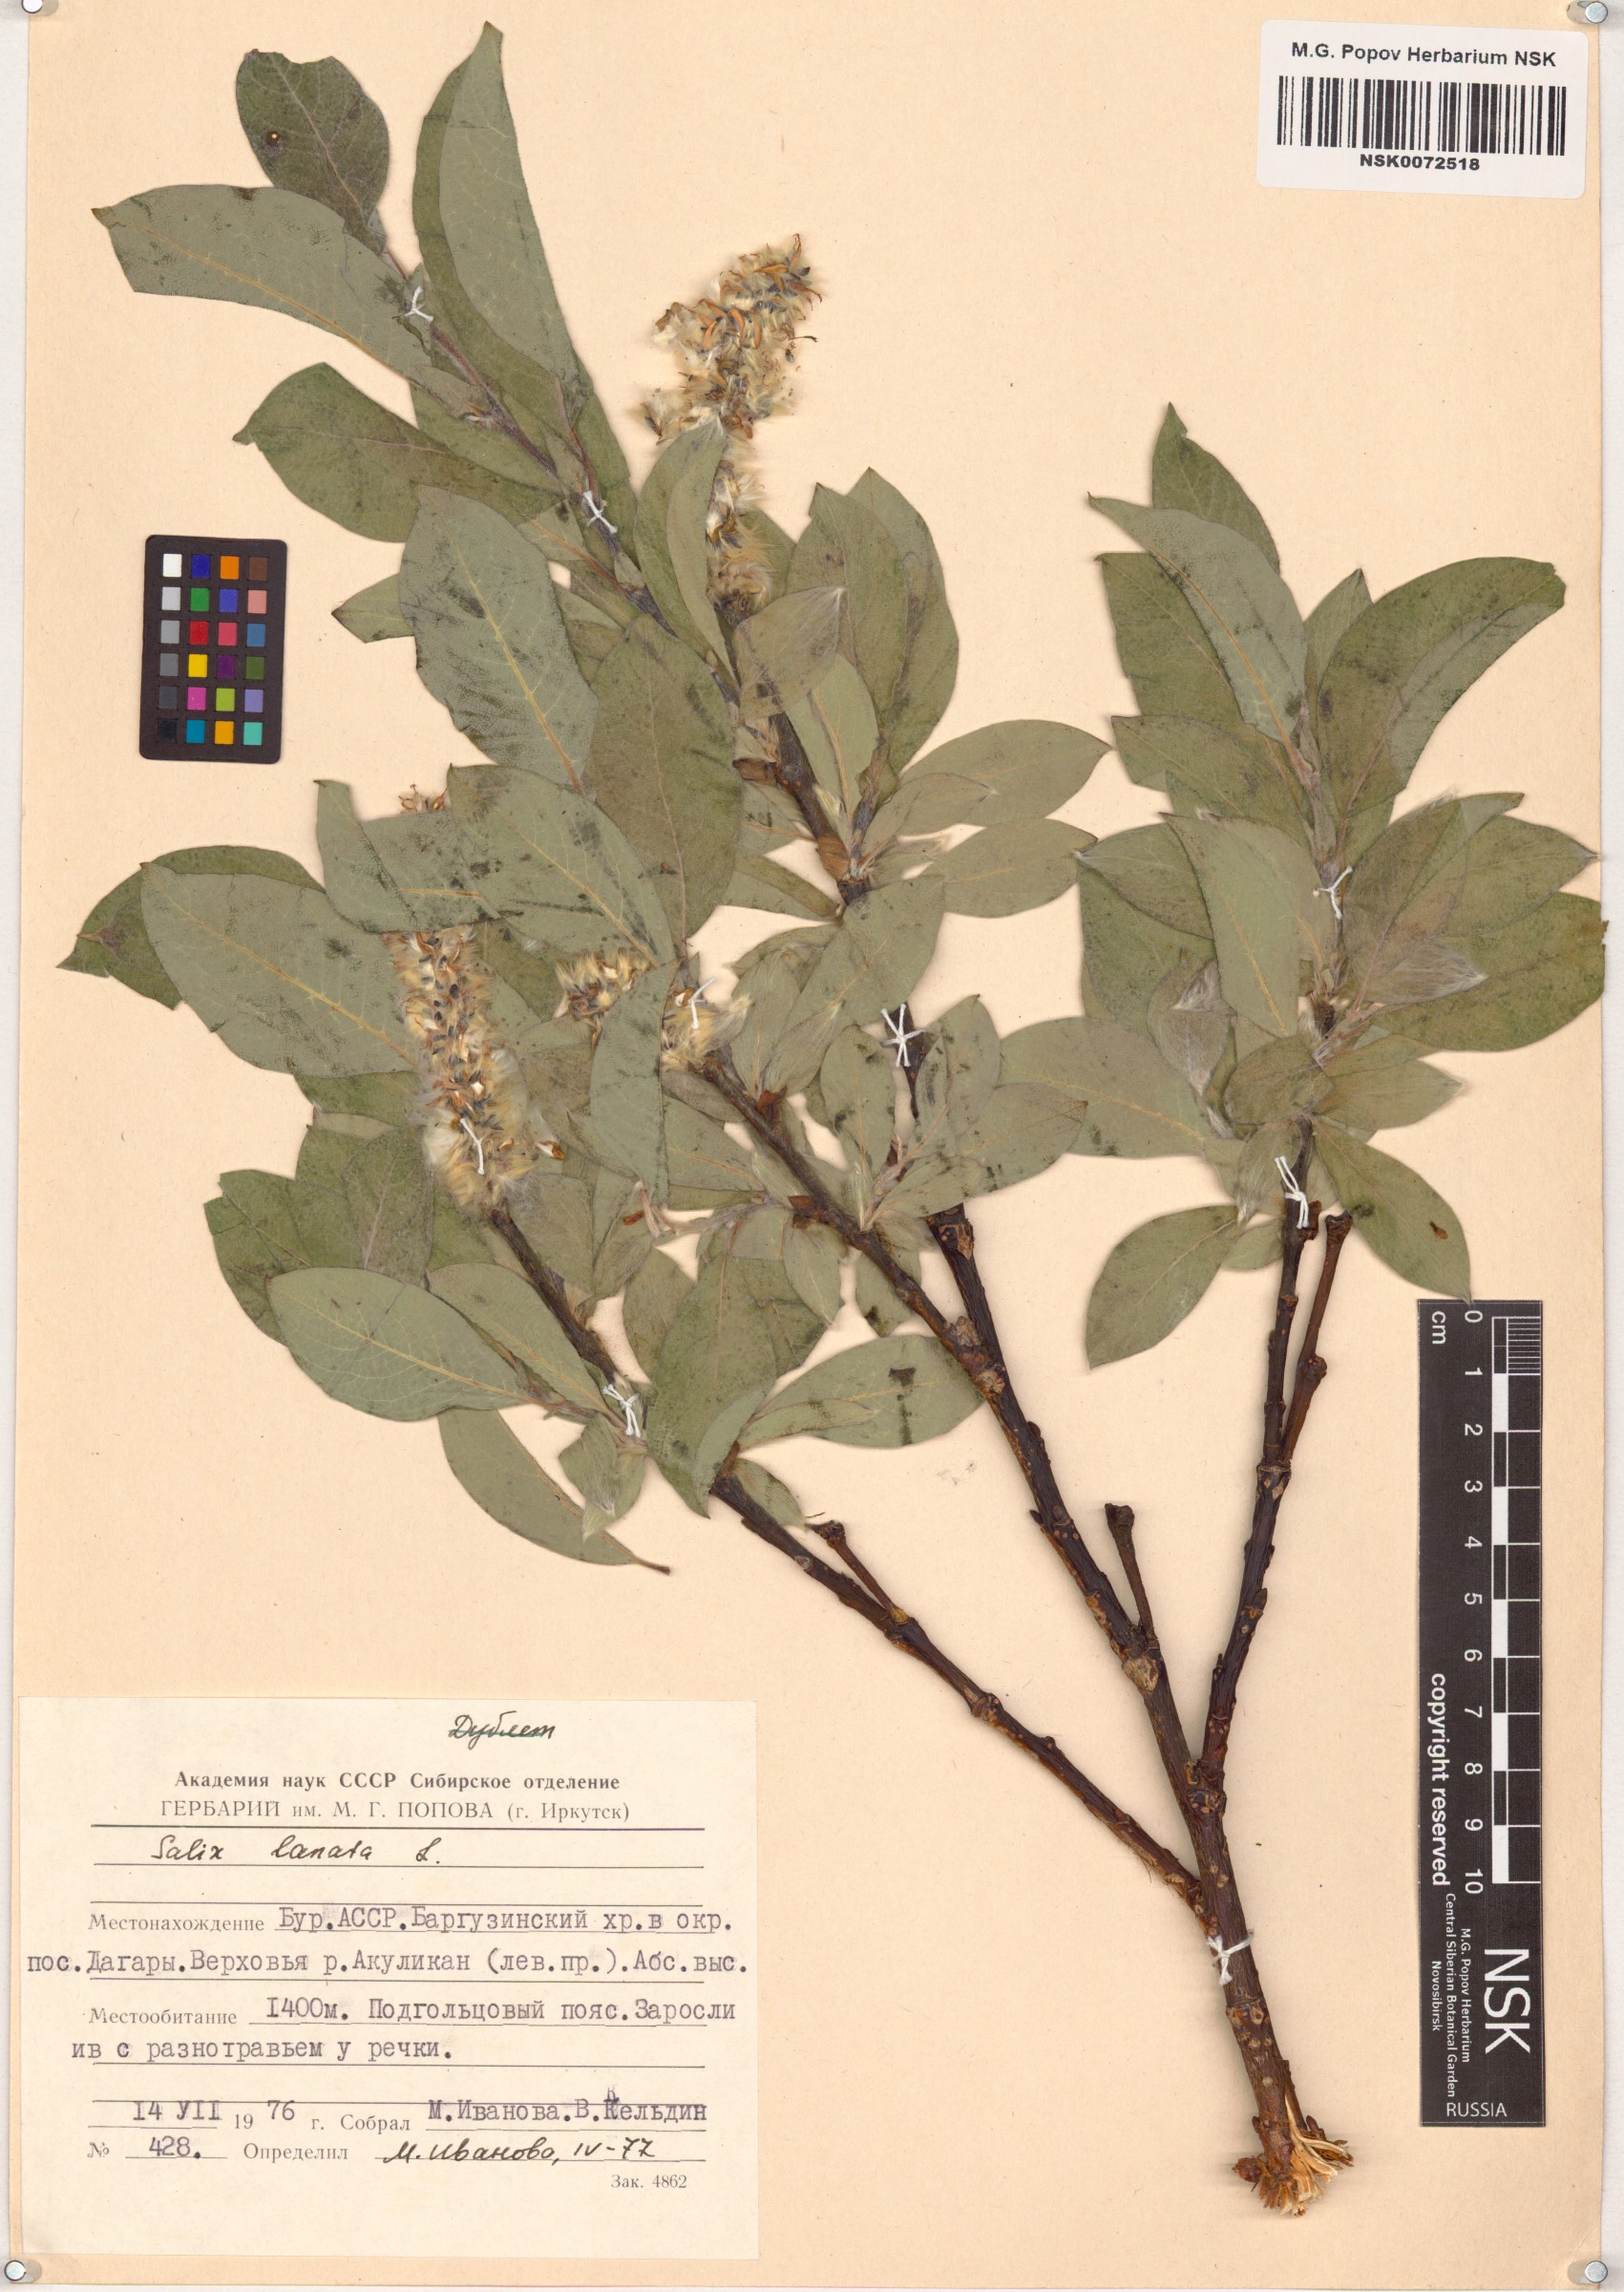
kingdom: Plantae
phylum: Tracheophyta
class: Magnoliopsida
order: Malpighiales
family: Salicaceae
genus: Salix
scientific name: Salix lanata
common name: Woolly willow
